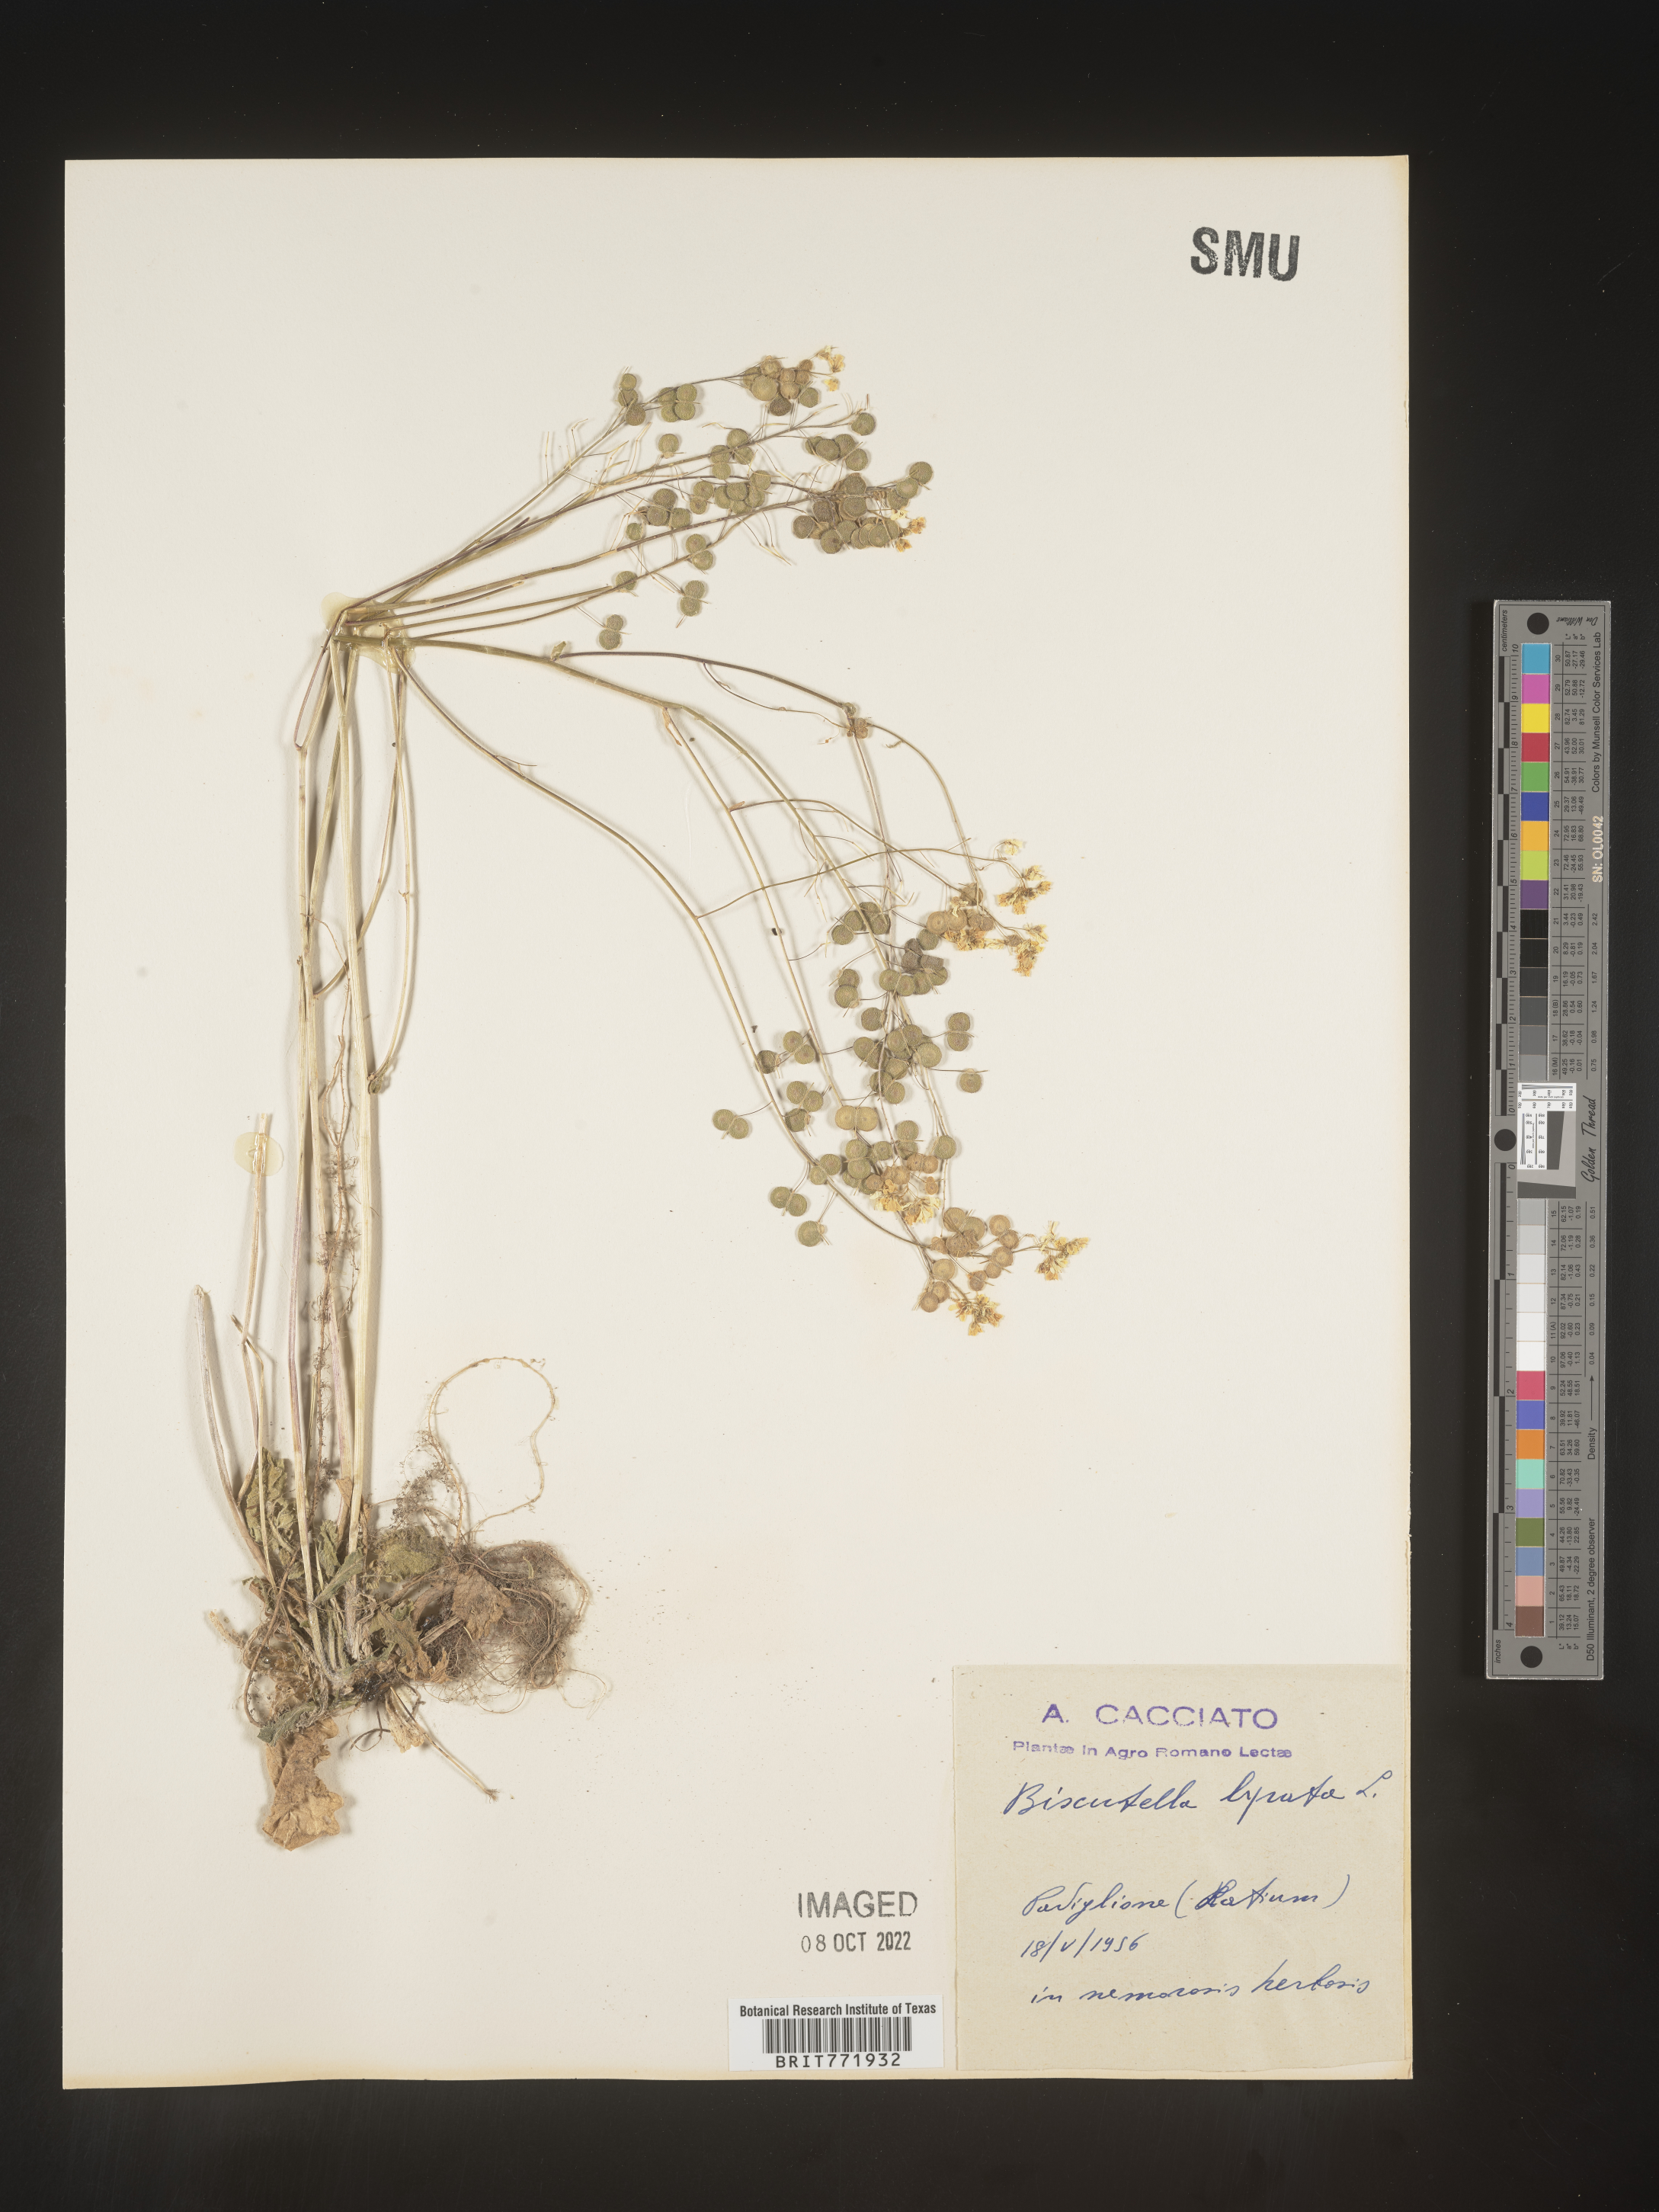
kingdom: Plantae
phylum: Tracheophyta
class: Magnoliopsida
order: Brassicales
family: Brassicaceae
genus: Biscutella
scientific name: Biscutella
